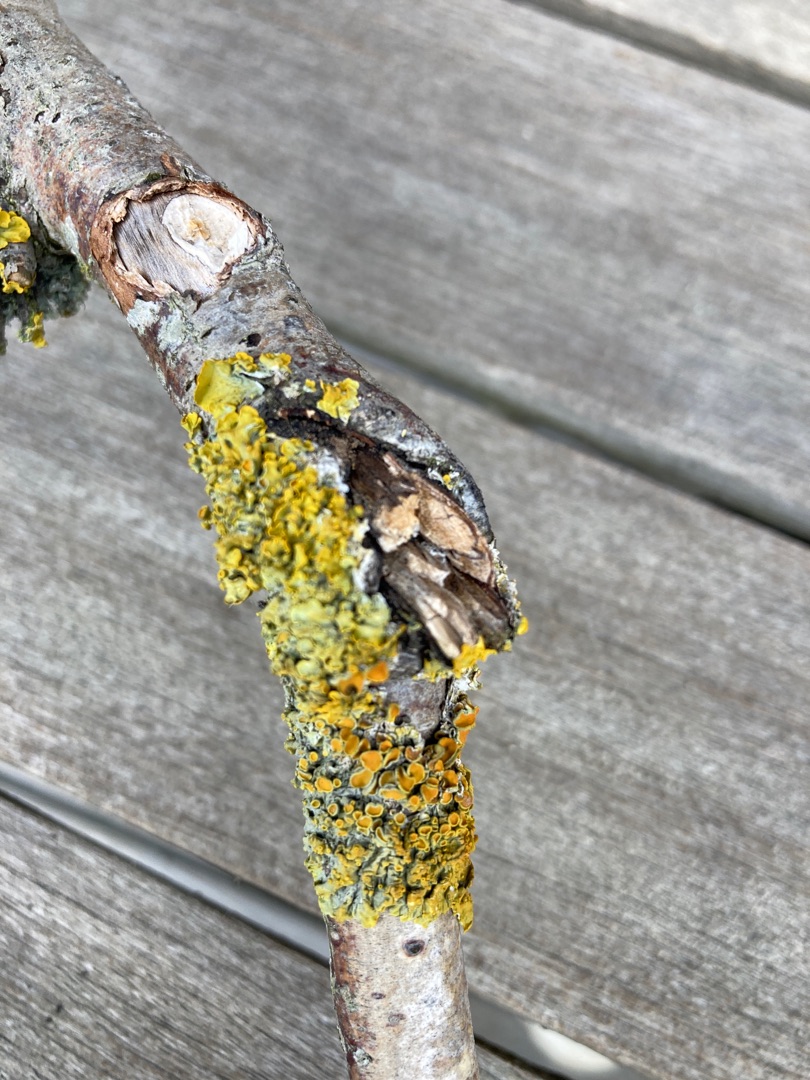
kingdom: Fungi
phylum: Ascomycota
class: Lecanoromycetes
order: Teloschistales
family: Teloschistaceae
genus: Xanthoria
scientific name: Xanthoria parietina
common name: Almindelig væggelav
